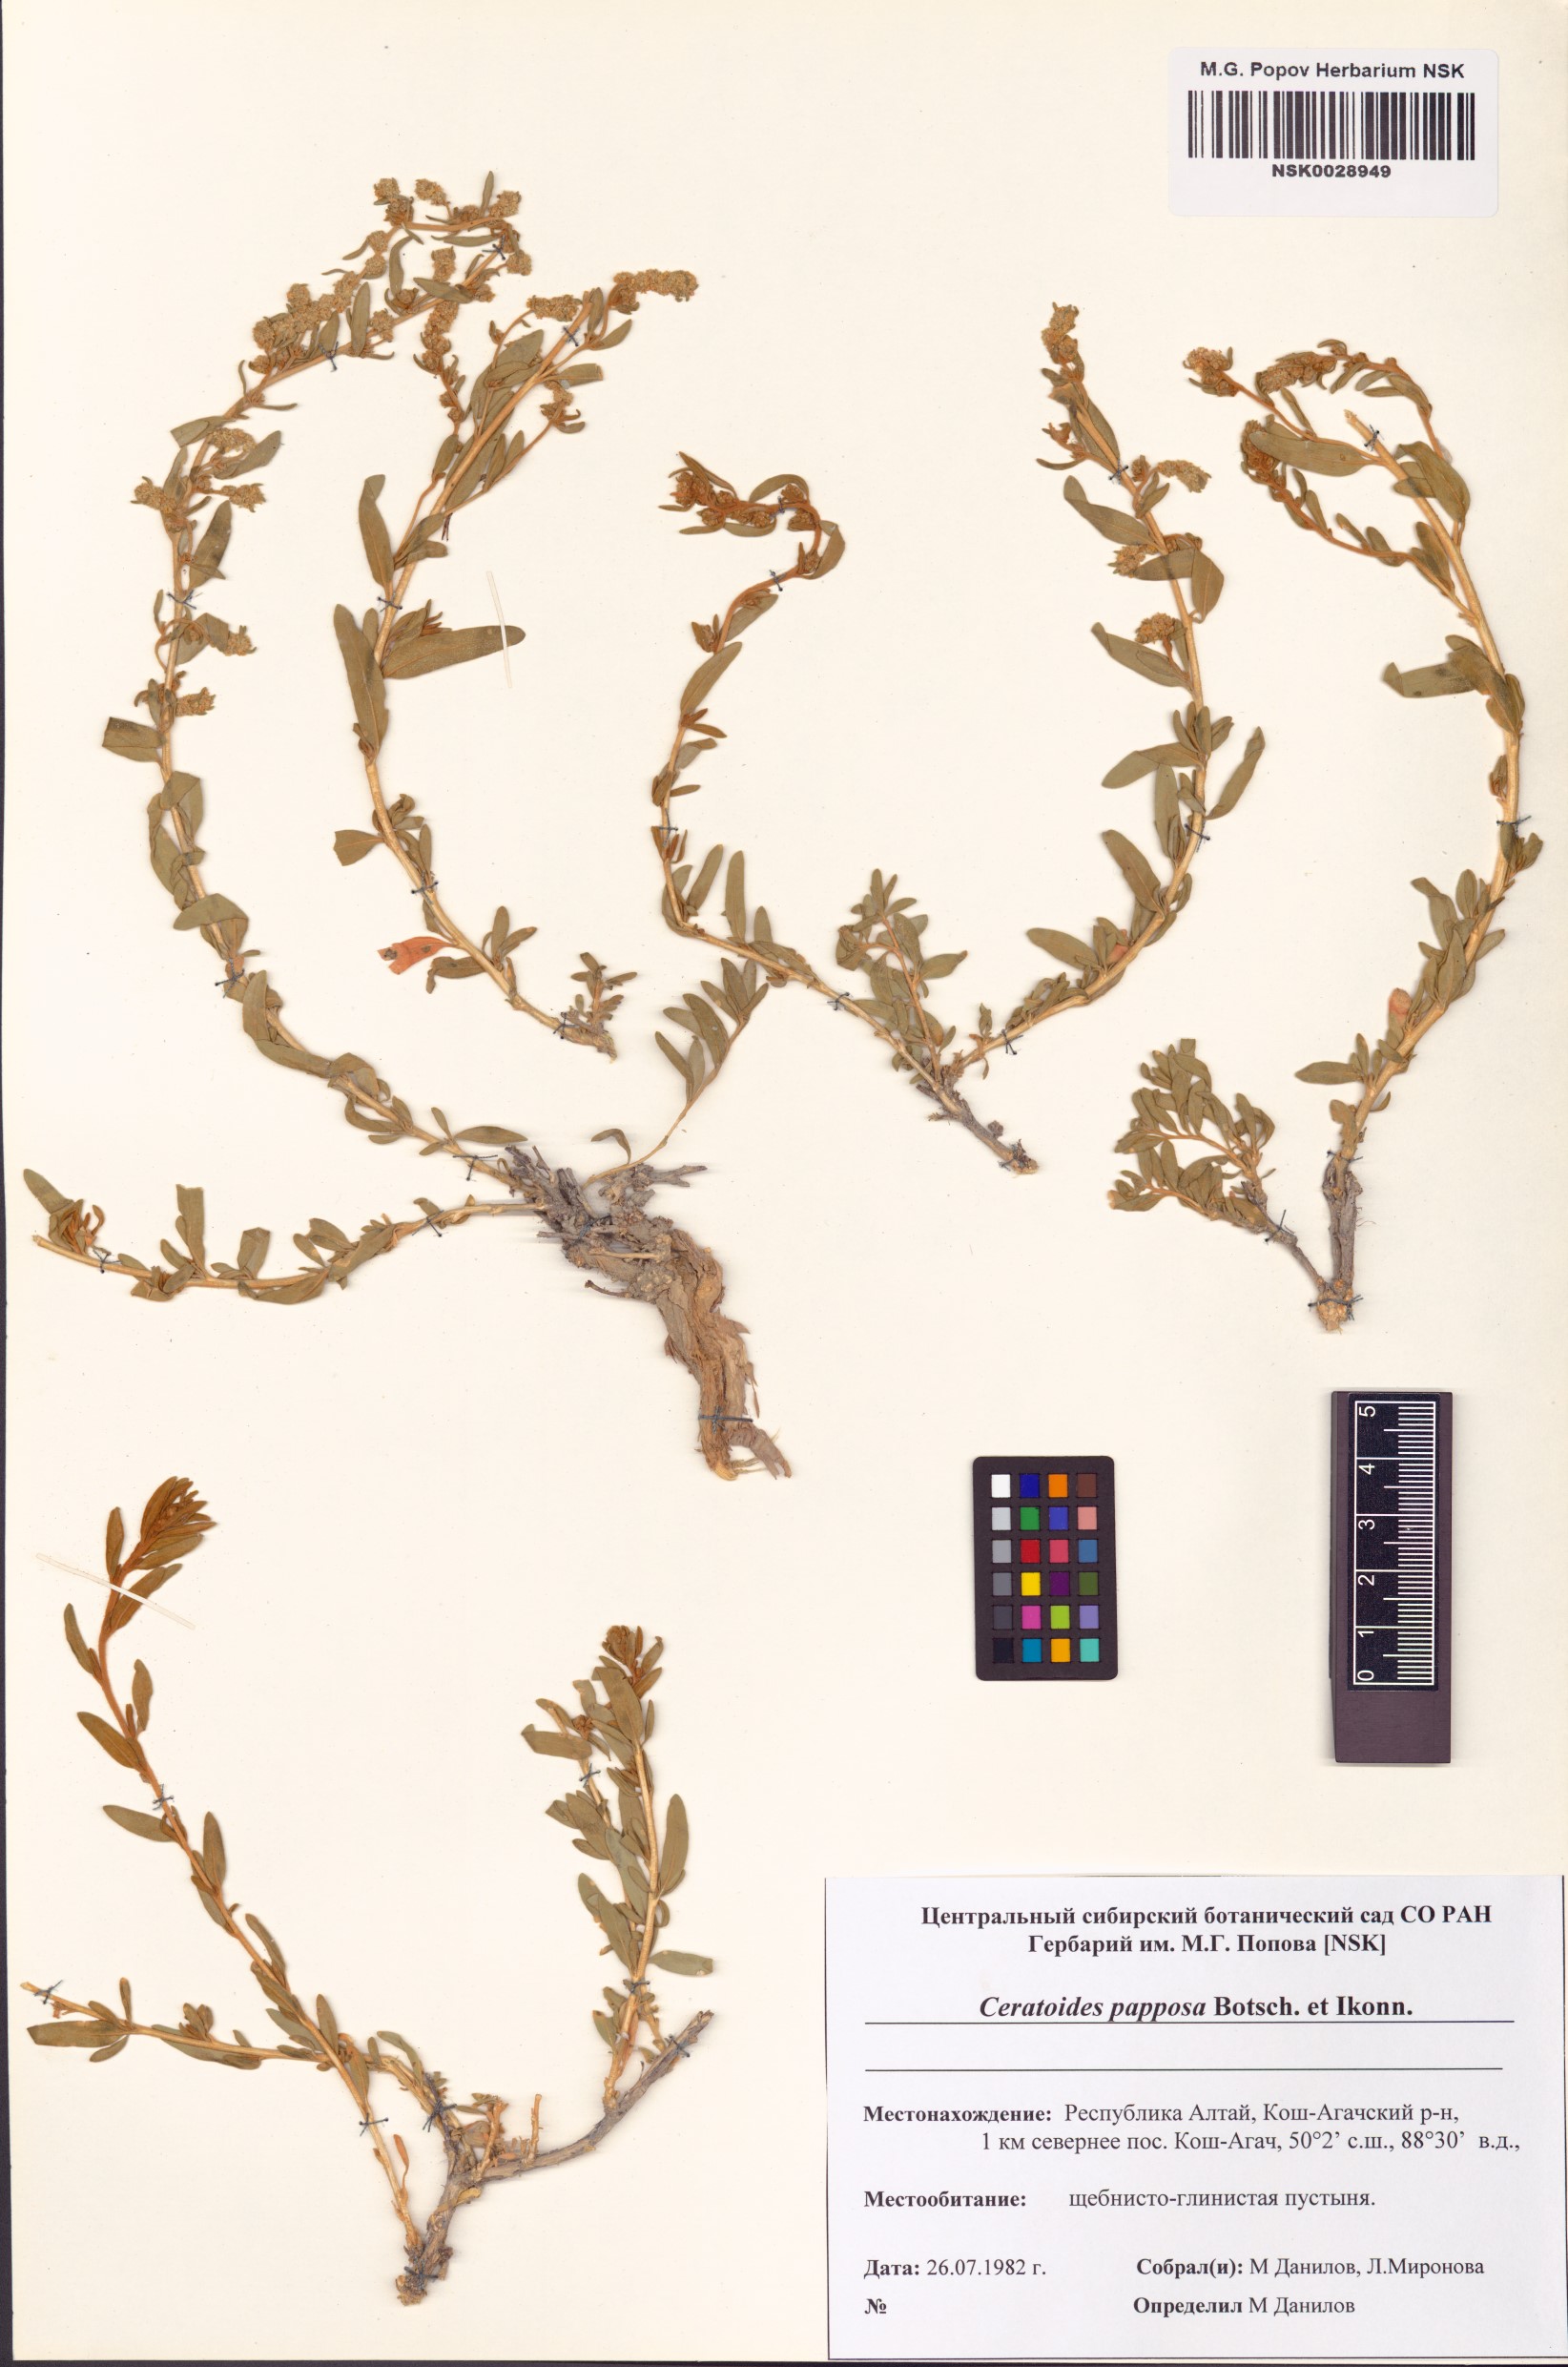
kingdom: Plantae
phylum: Tracheophyta
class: Magnoliopsida
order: Caryophyllales
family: Amaranthaceae
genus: Krascheninnikovia
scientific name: Krascheninnikovia ceratoides
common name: Pamirian winterfat
